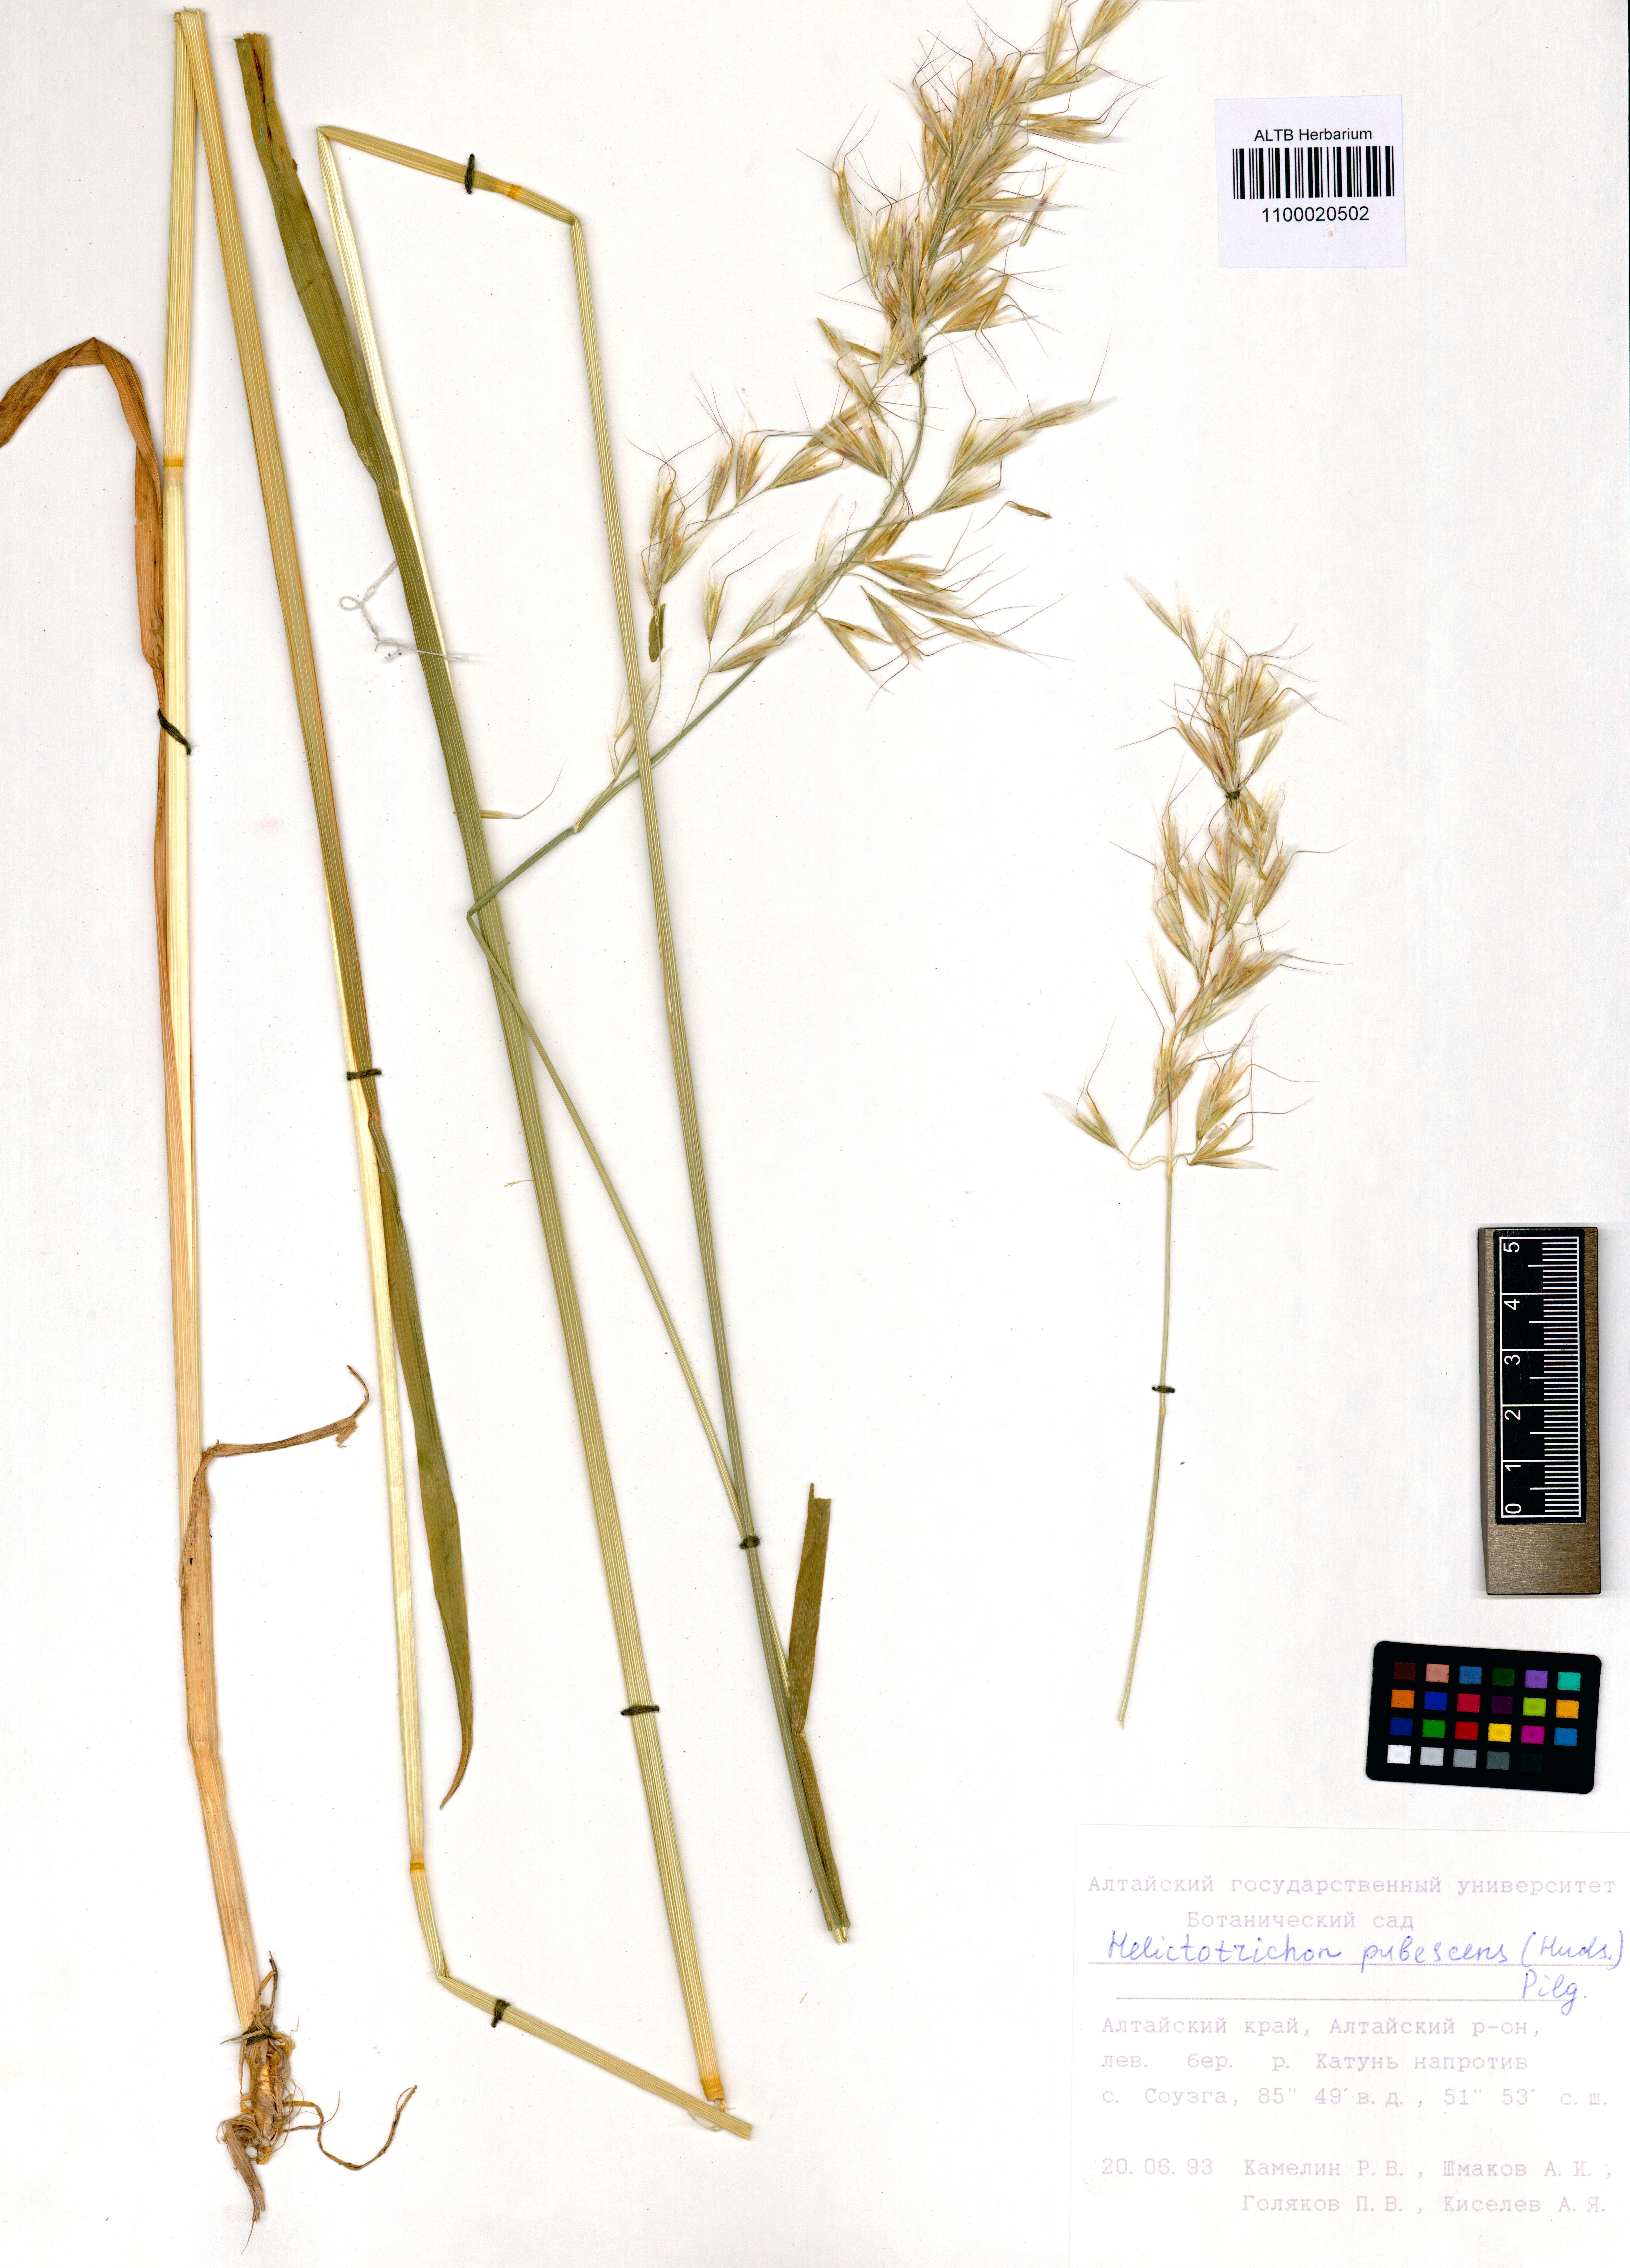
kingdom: Plantae
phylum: Tracheophyta
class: Liliopsida
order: Poales
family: Poaceae
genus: Avenula
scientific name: Avenula pubescens
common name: Downy alpine oatgrass
